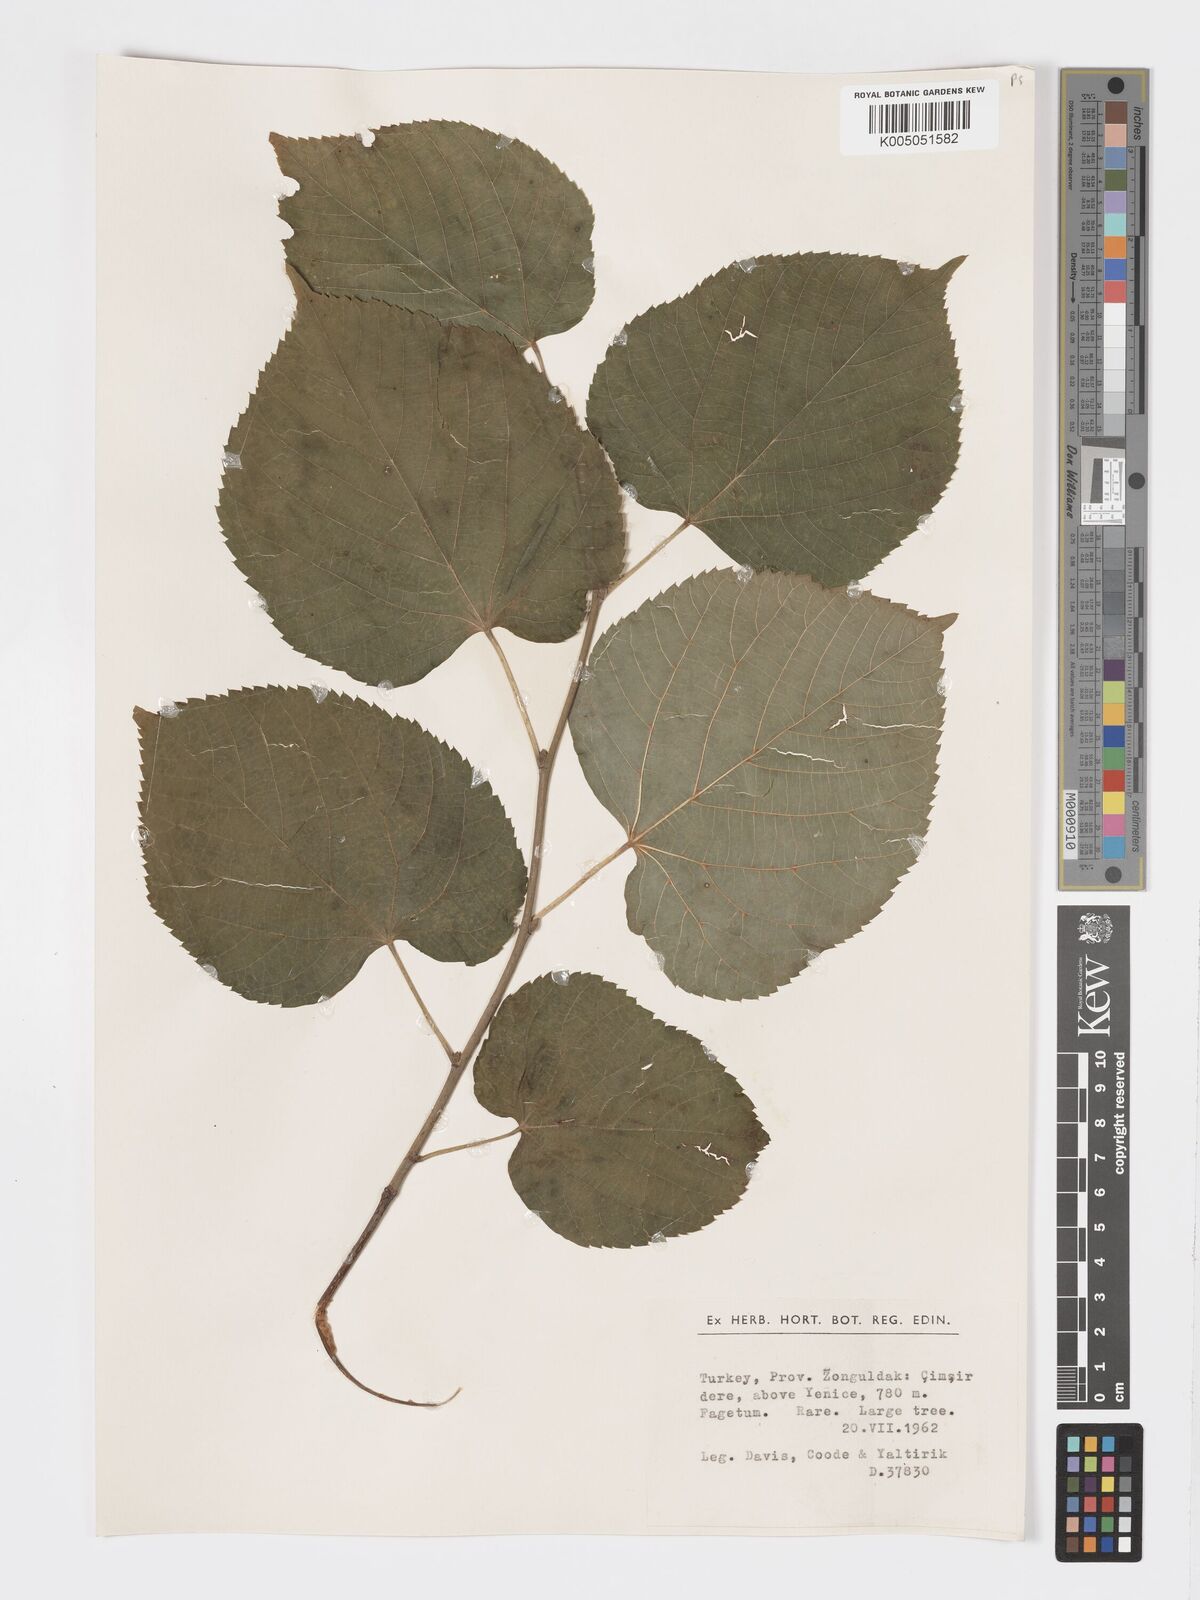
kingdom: Plantae
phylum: Tracheophyta
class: Magnoliopsida
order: Malvales
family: Malvaceae
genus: Tilia
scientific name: Tilia
